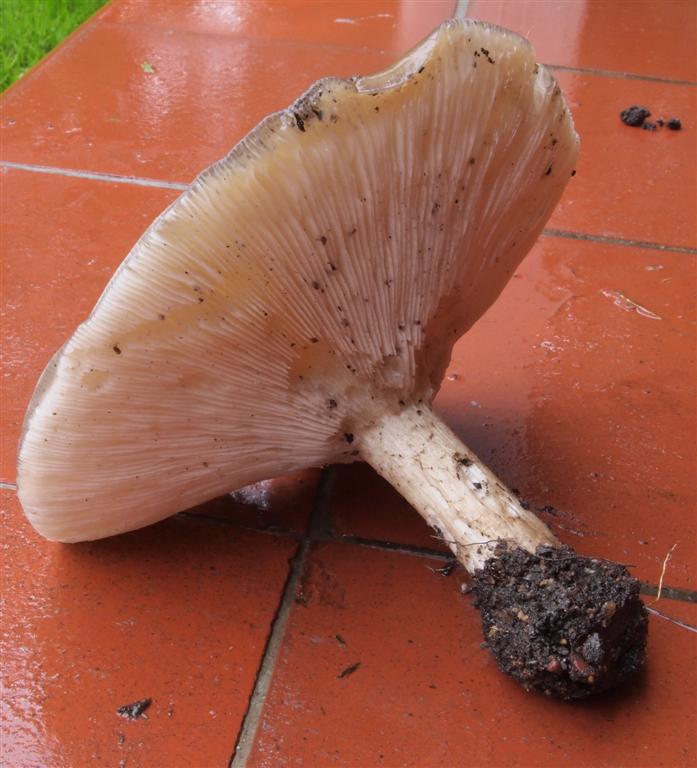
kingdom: Fungi
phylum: Basidiomycota
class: Agaricomycetes
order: Agaricales
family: Tricholomataceae
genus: Melanoleuca
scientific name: Melanoleuca grammopodia
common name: stribestokket munkehat
